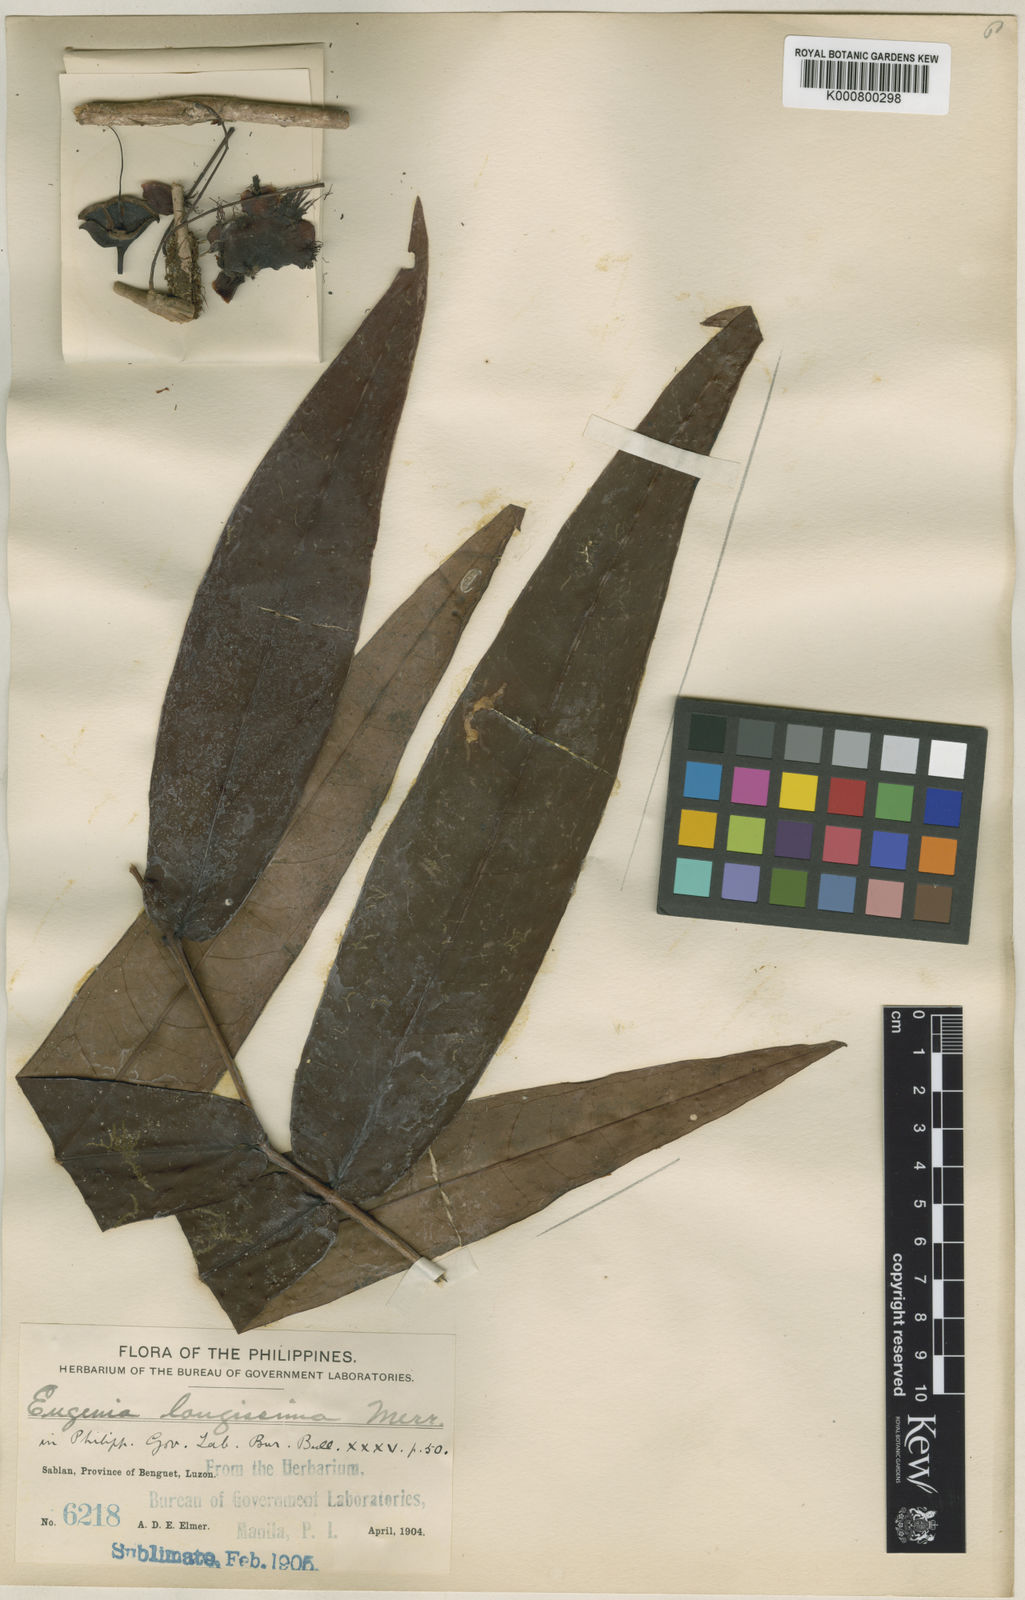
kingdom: Plantae
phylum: Tracheophyta
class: Magnoliopsida
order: Myrtales
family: Myrtaceae
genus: Syzygium
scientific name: Syzygium longissimum
